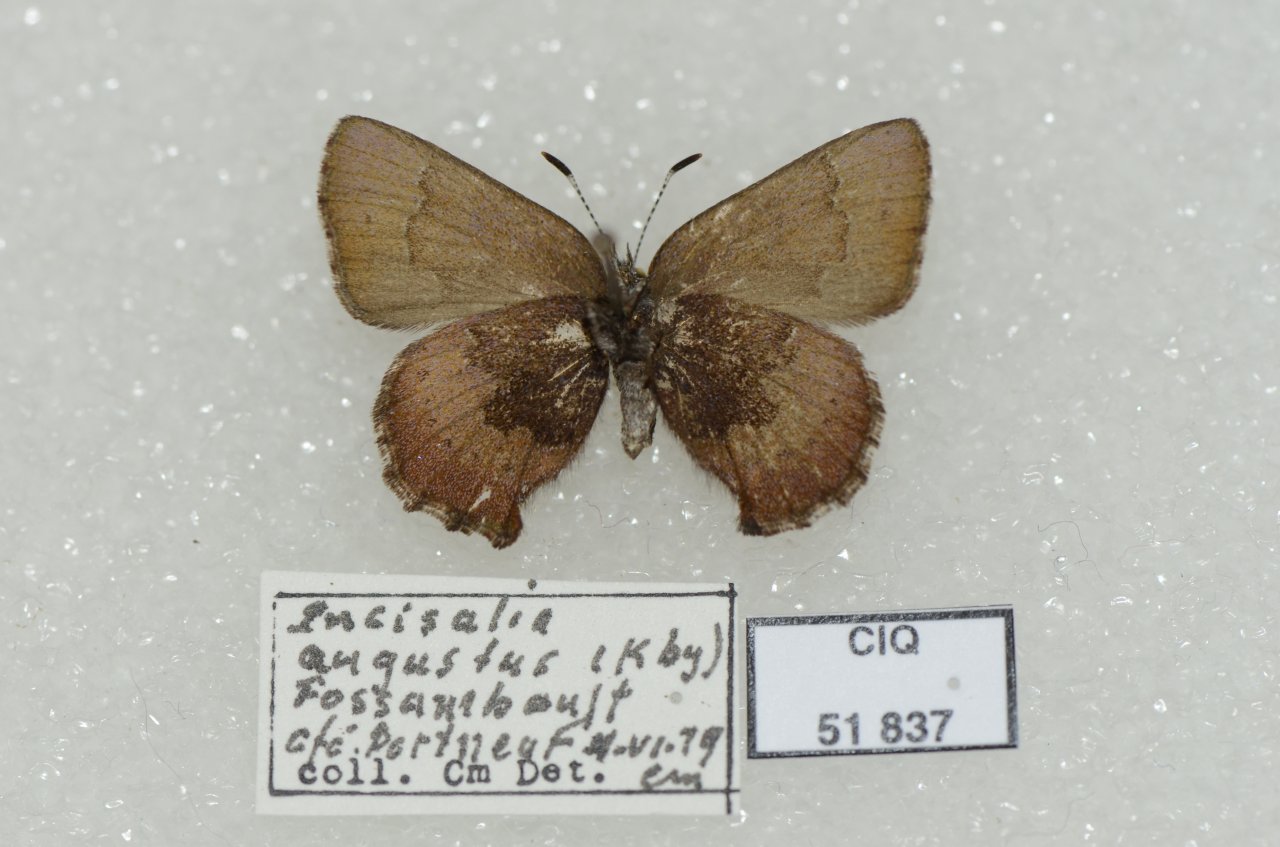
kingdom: Animalia
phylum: Arthropoda
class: Insecta
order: Lepidoptera
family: Lycaenidae
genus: Incisalia
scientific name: Incisalia irioides
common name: Brown Elfin
